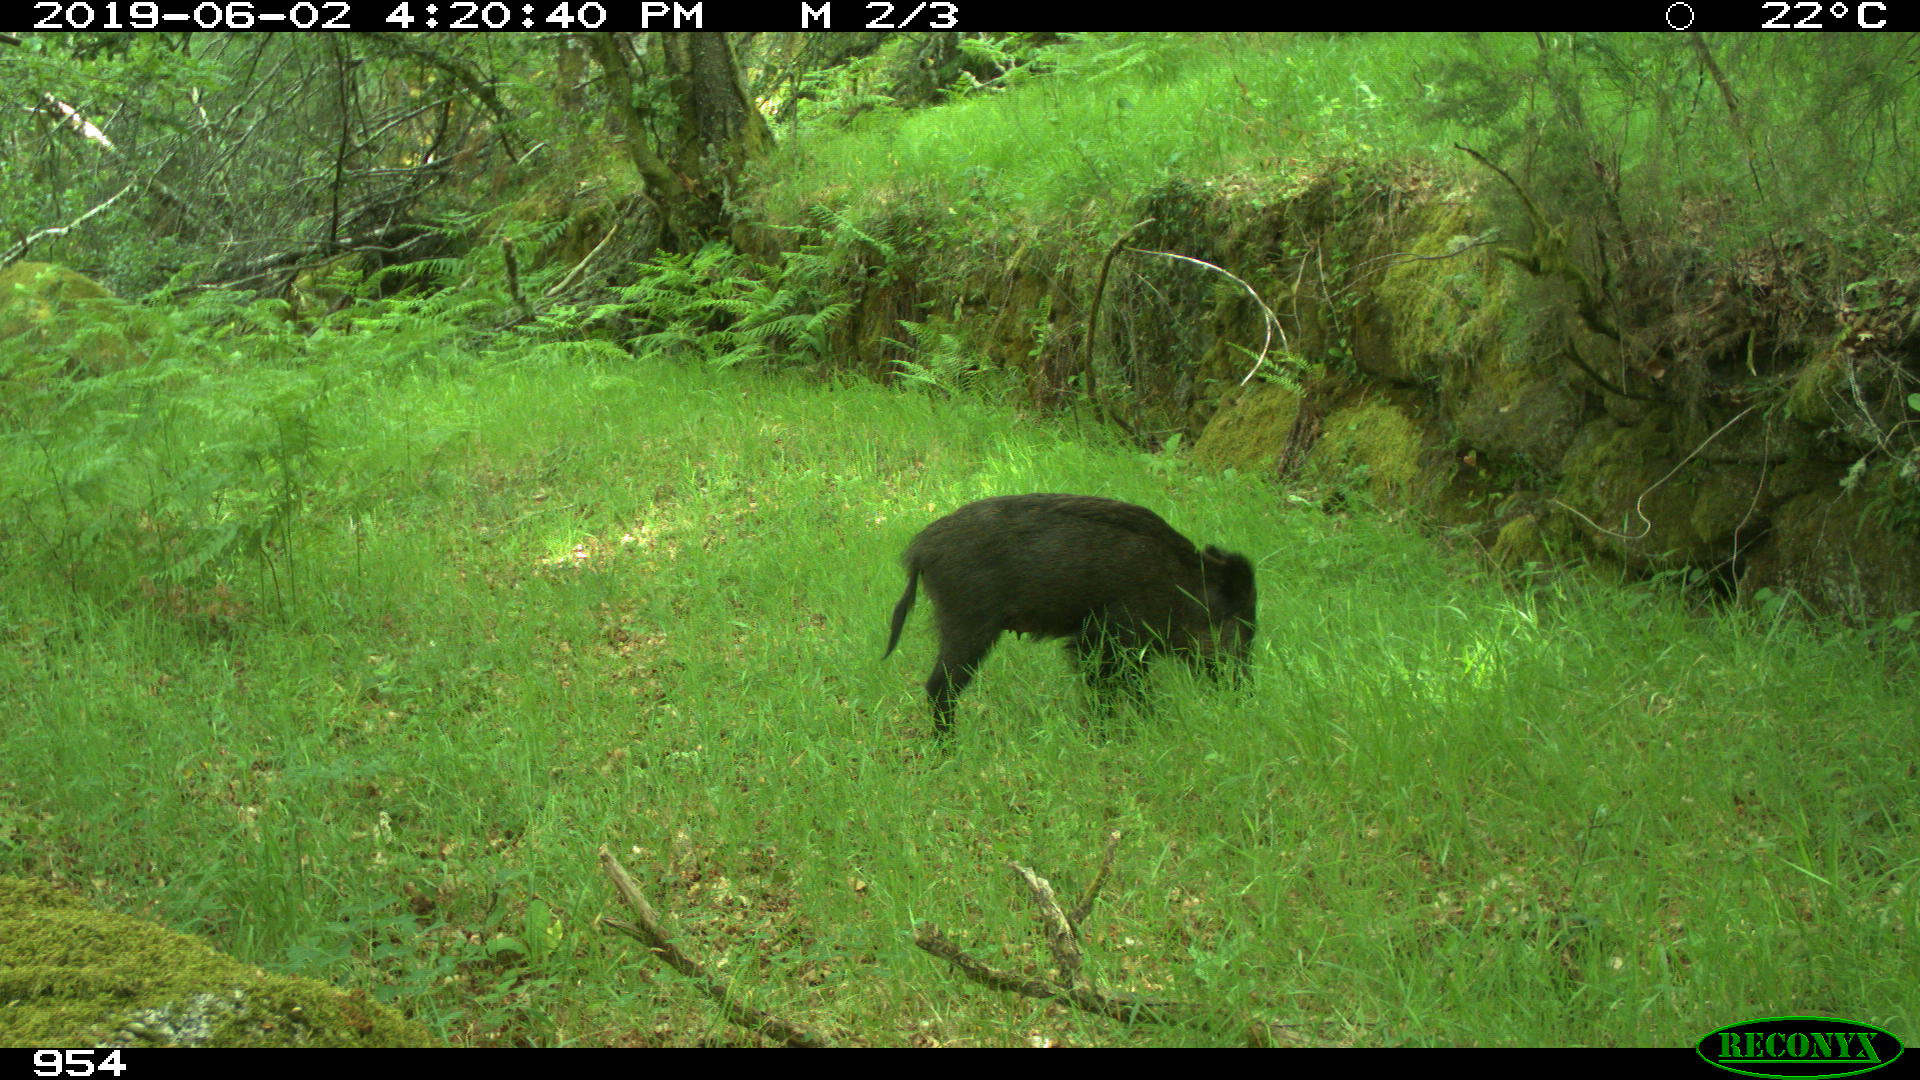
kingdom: Animalia
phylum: Chordata
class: Mammalia
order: Artiodactyla
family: Suidae
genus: Sus
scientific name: Sus scrofa
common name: Wild boar
